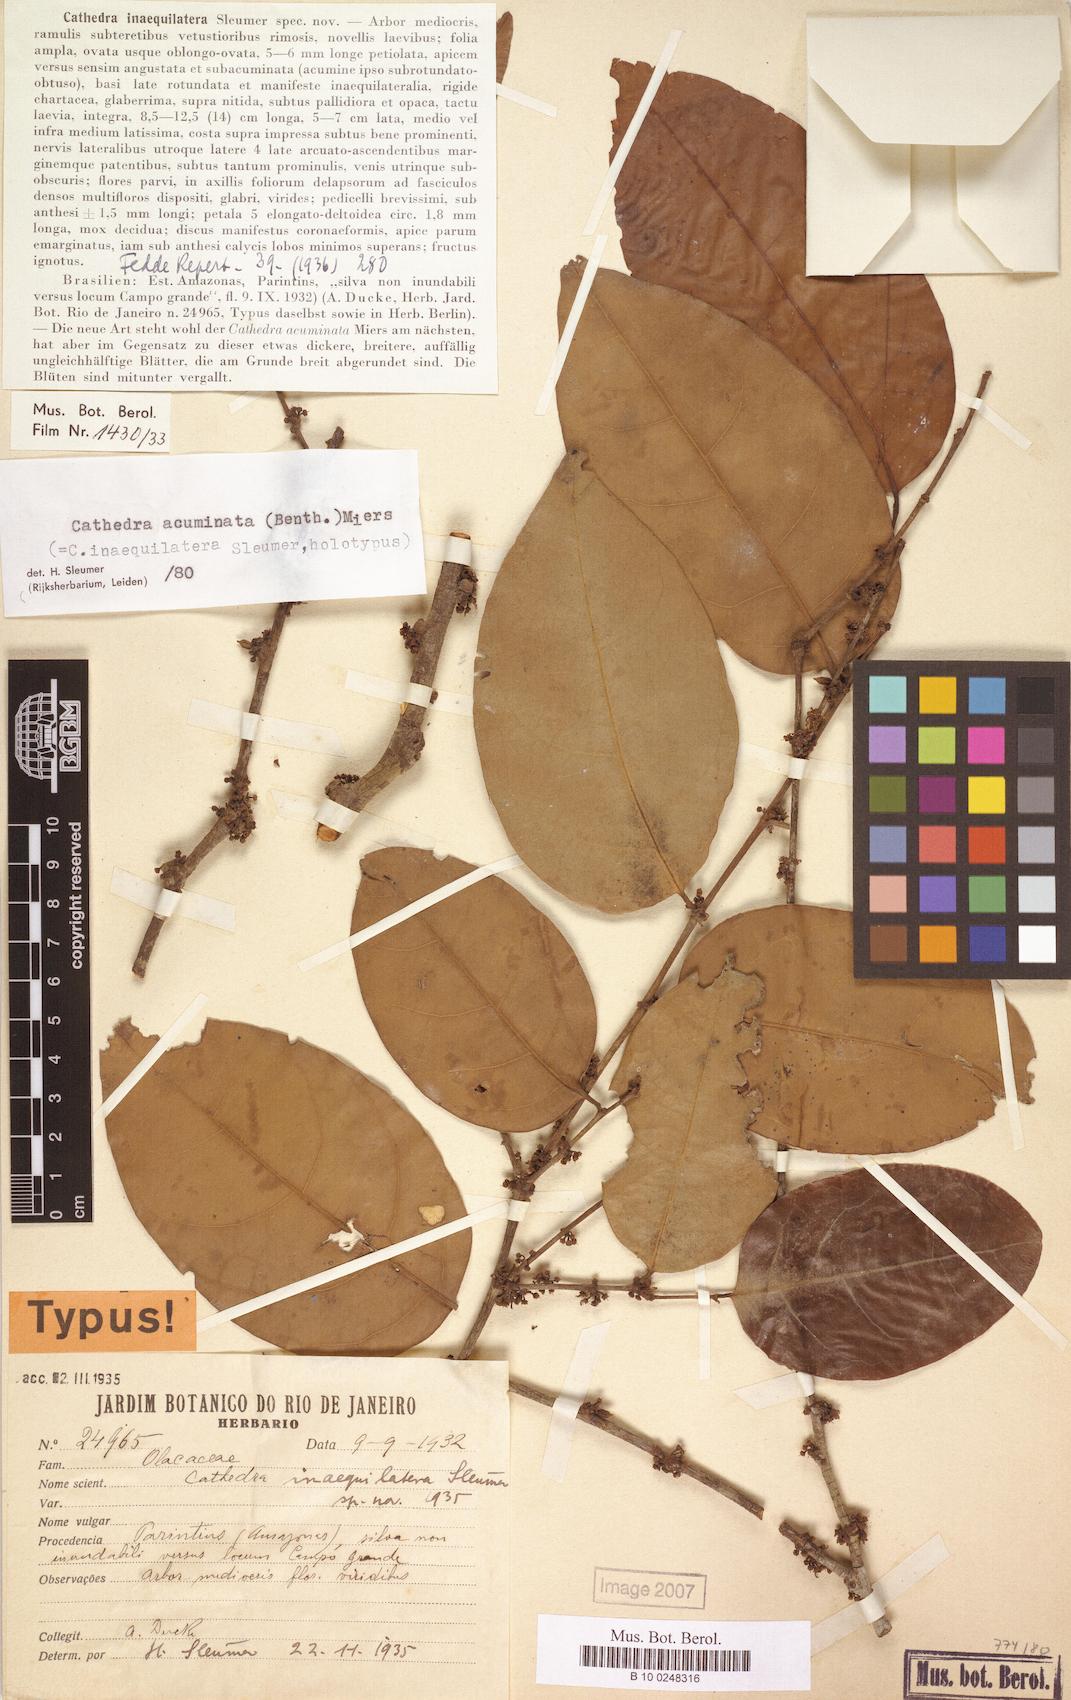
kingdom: Plantae
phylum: Tracheophyta
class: Magnoliopsida
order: Santalales
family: Aptandraceae
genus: Cathedra
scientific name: Cathedra acuminata
